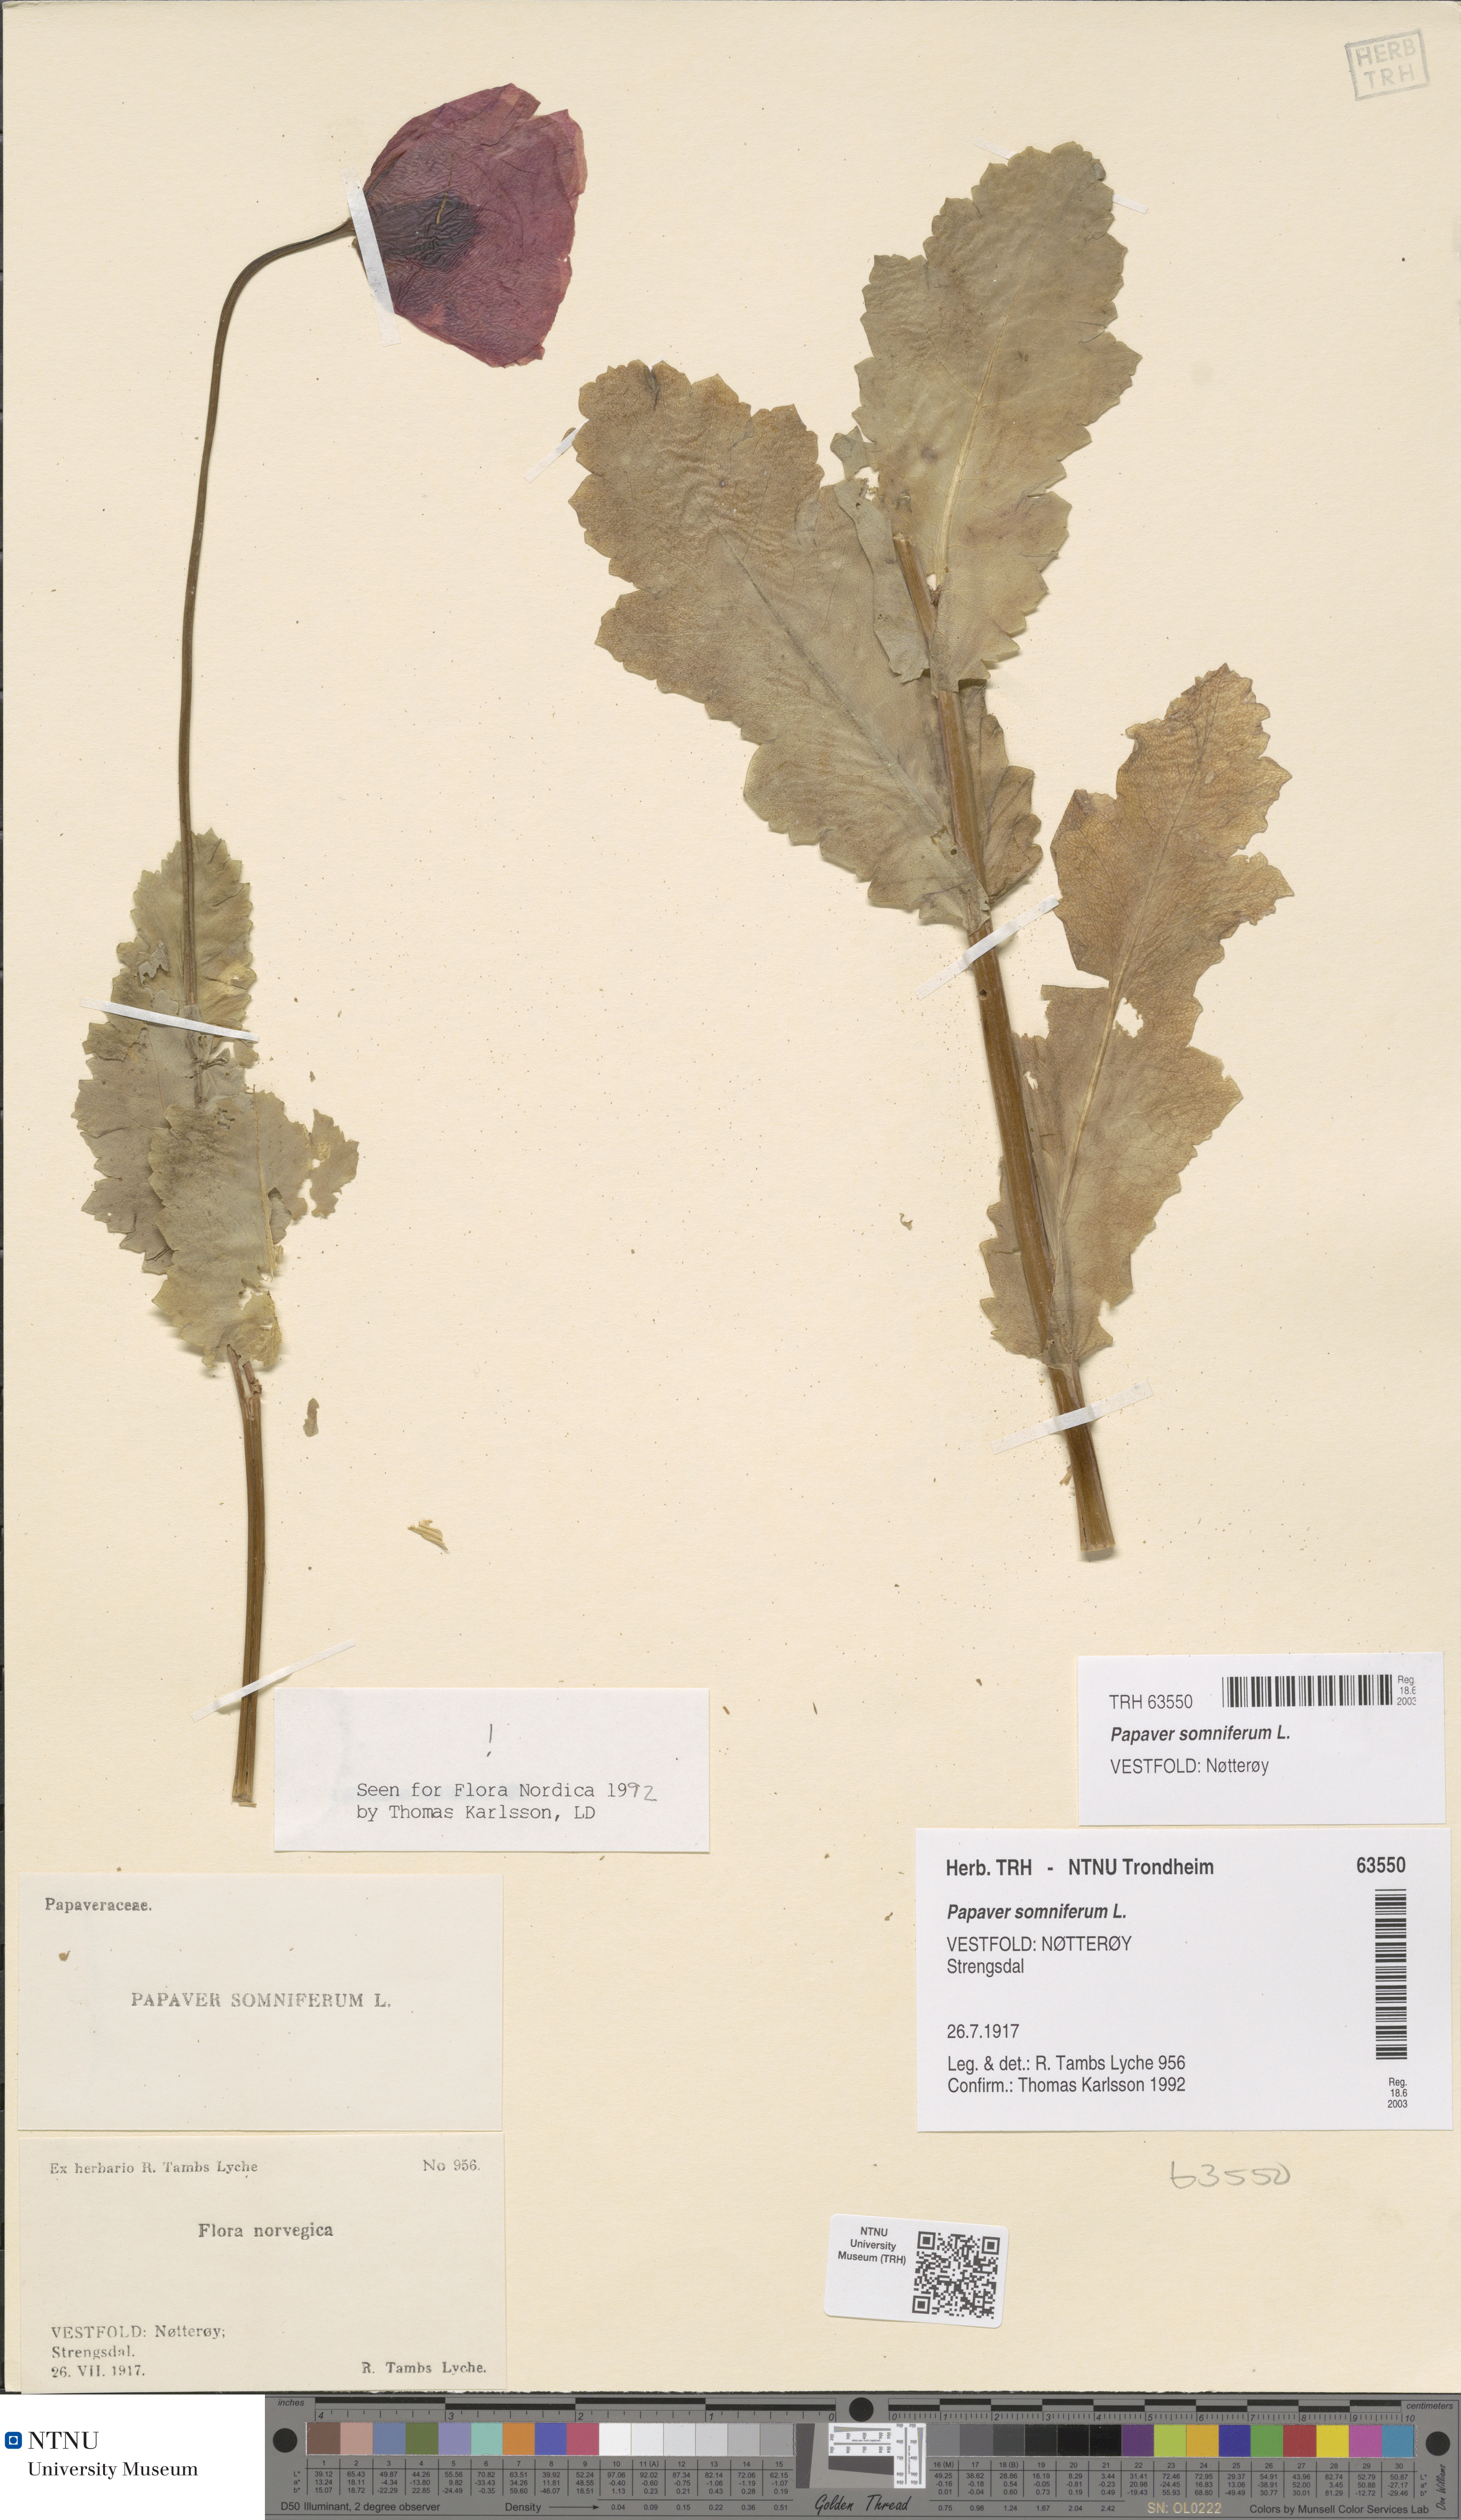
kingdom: Plantae
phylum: Tracheophyta
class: Magnoliopsida
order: Ranunculales
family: Papaveraceae
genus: Papaver
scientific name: Papaver somniferum
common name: Opium poppy
